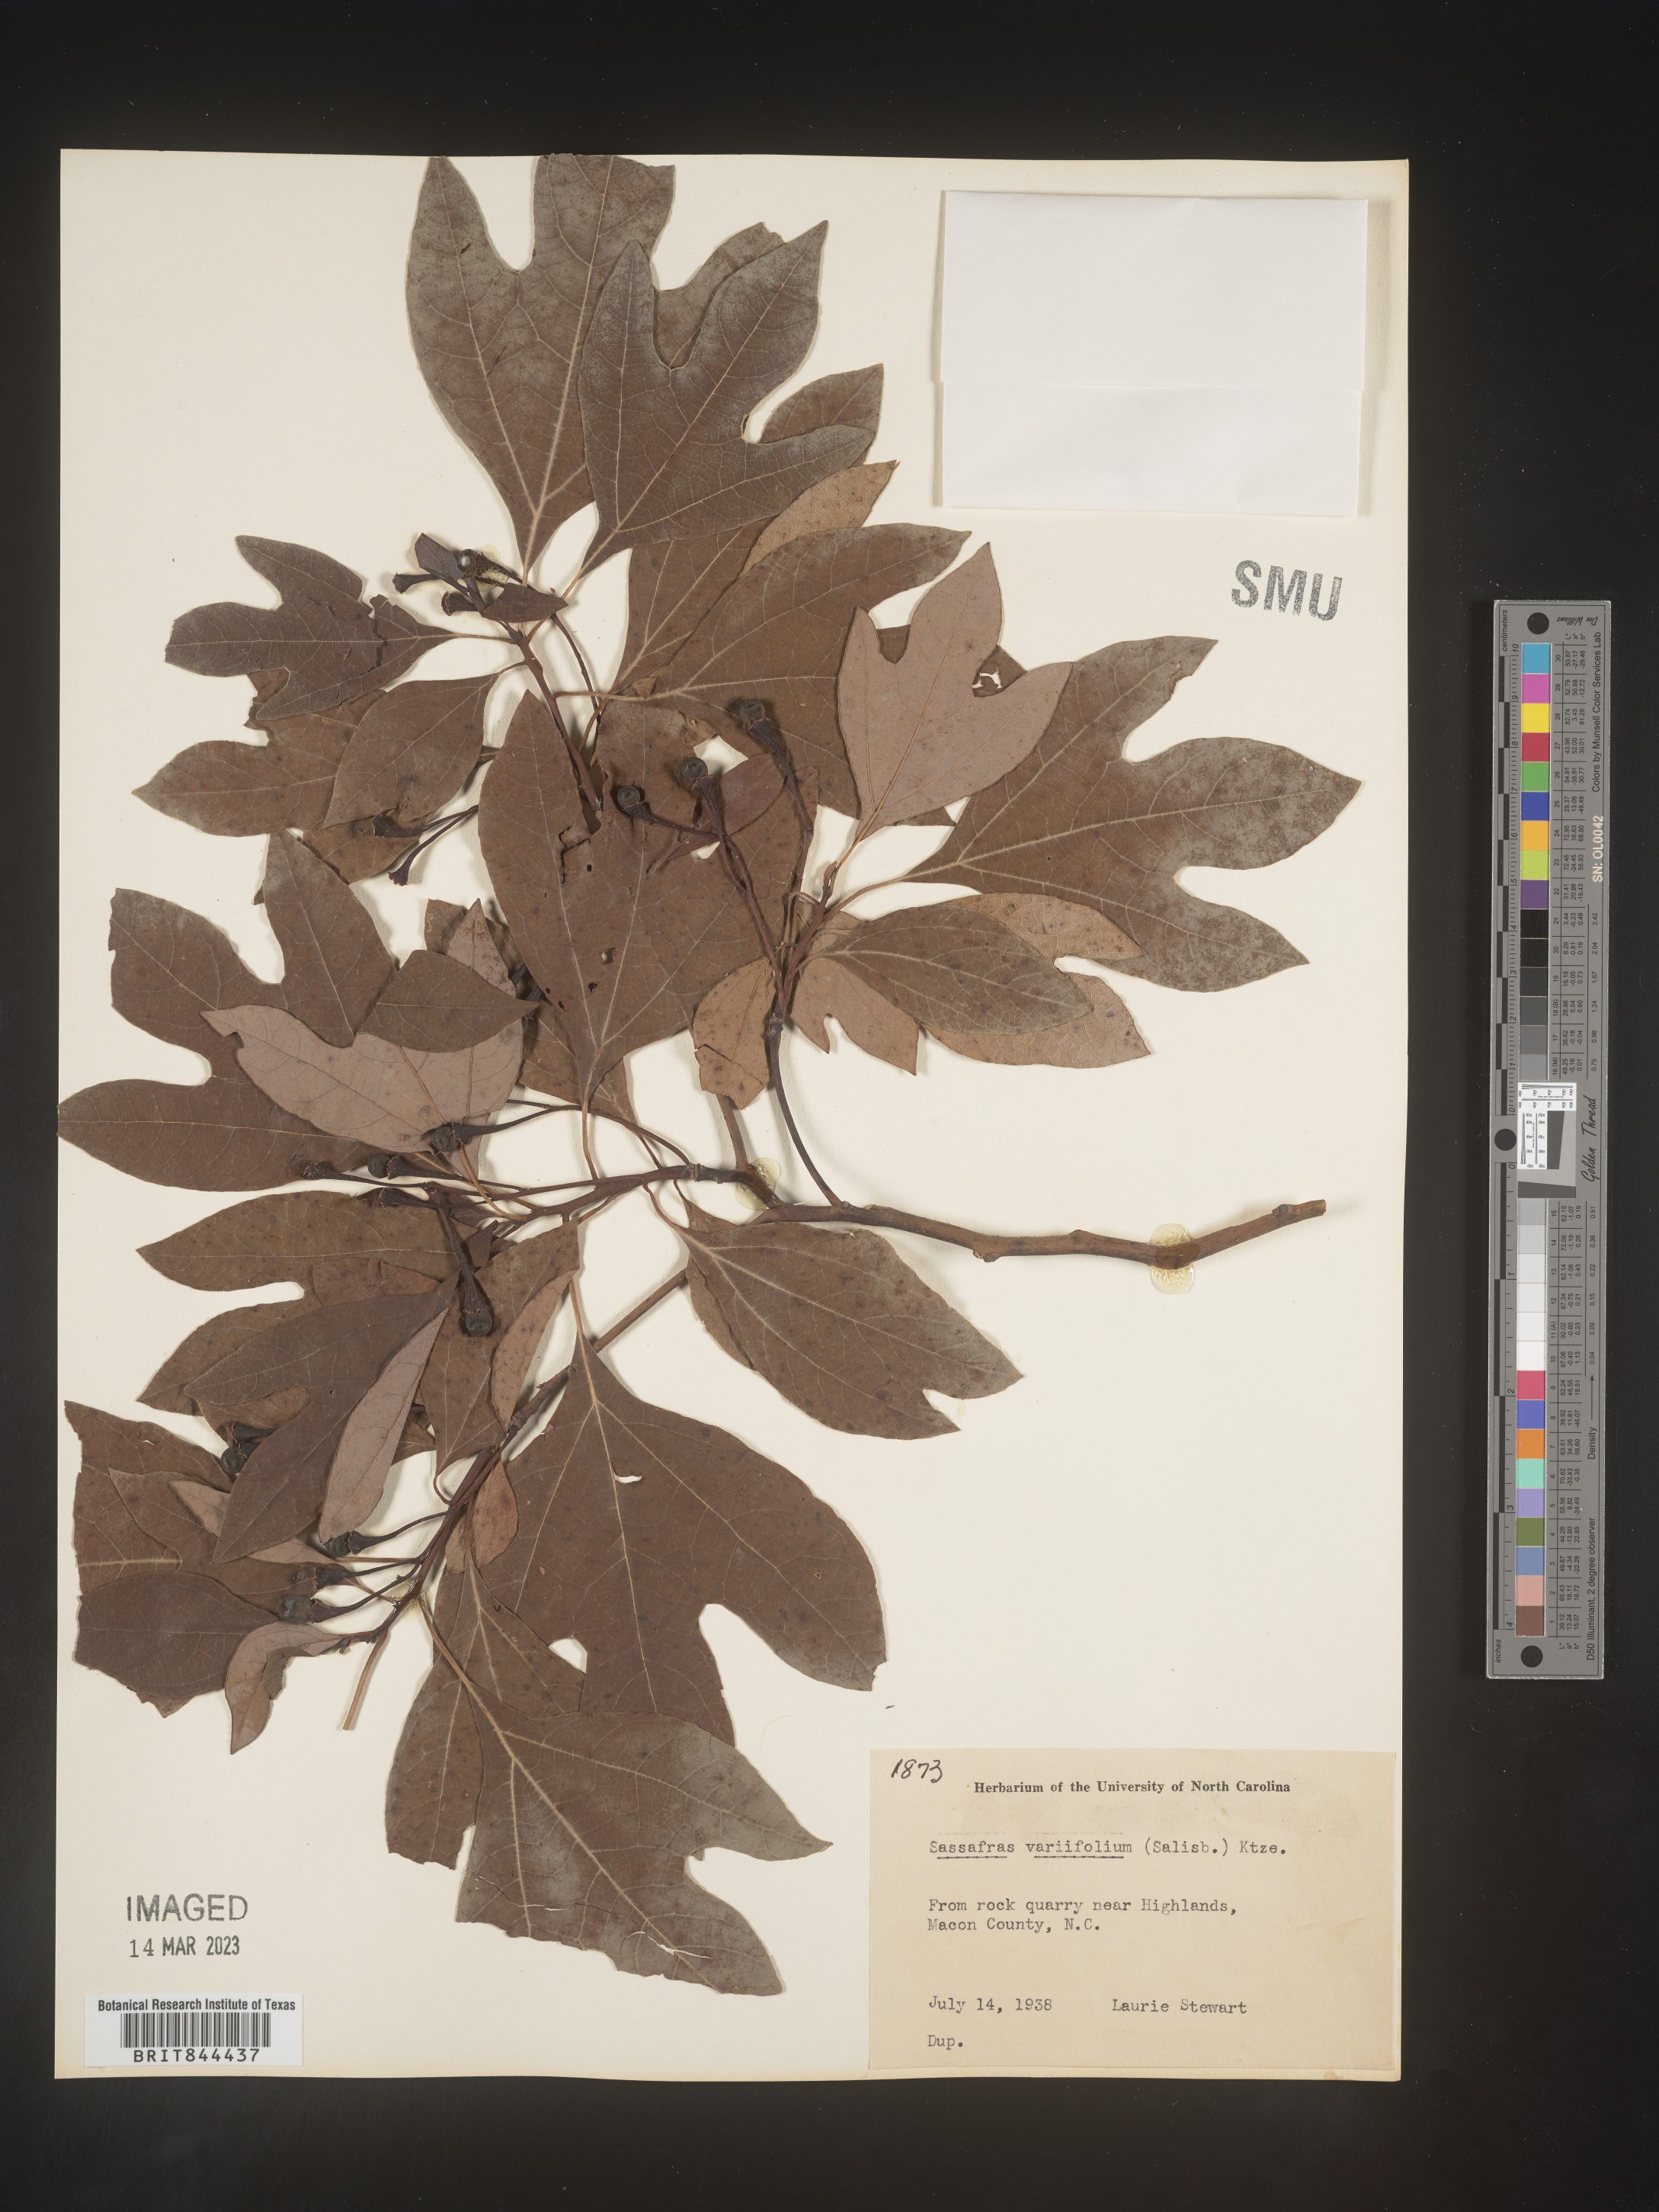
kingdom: Plantae
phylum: Tracheophyta
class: Magnoliopsida
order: Laurales
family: Lauraceae
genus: Sassafras
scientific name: Sassafras albidum
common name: Sassafras
